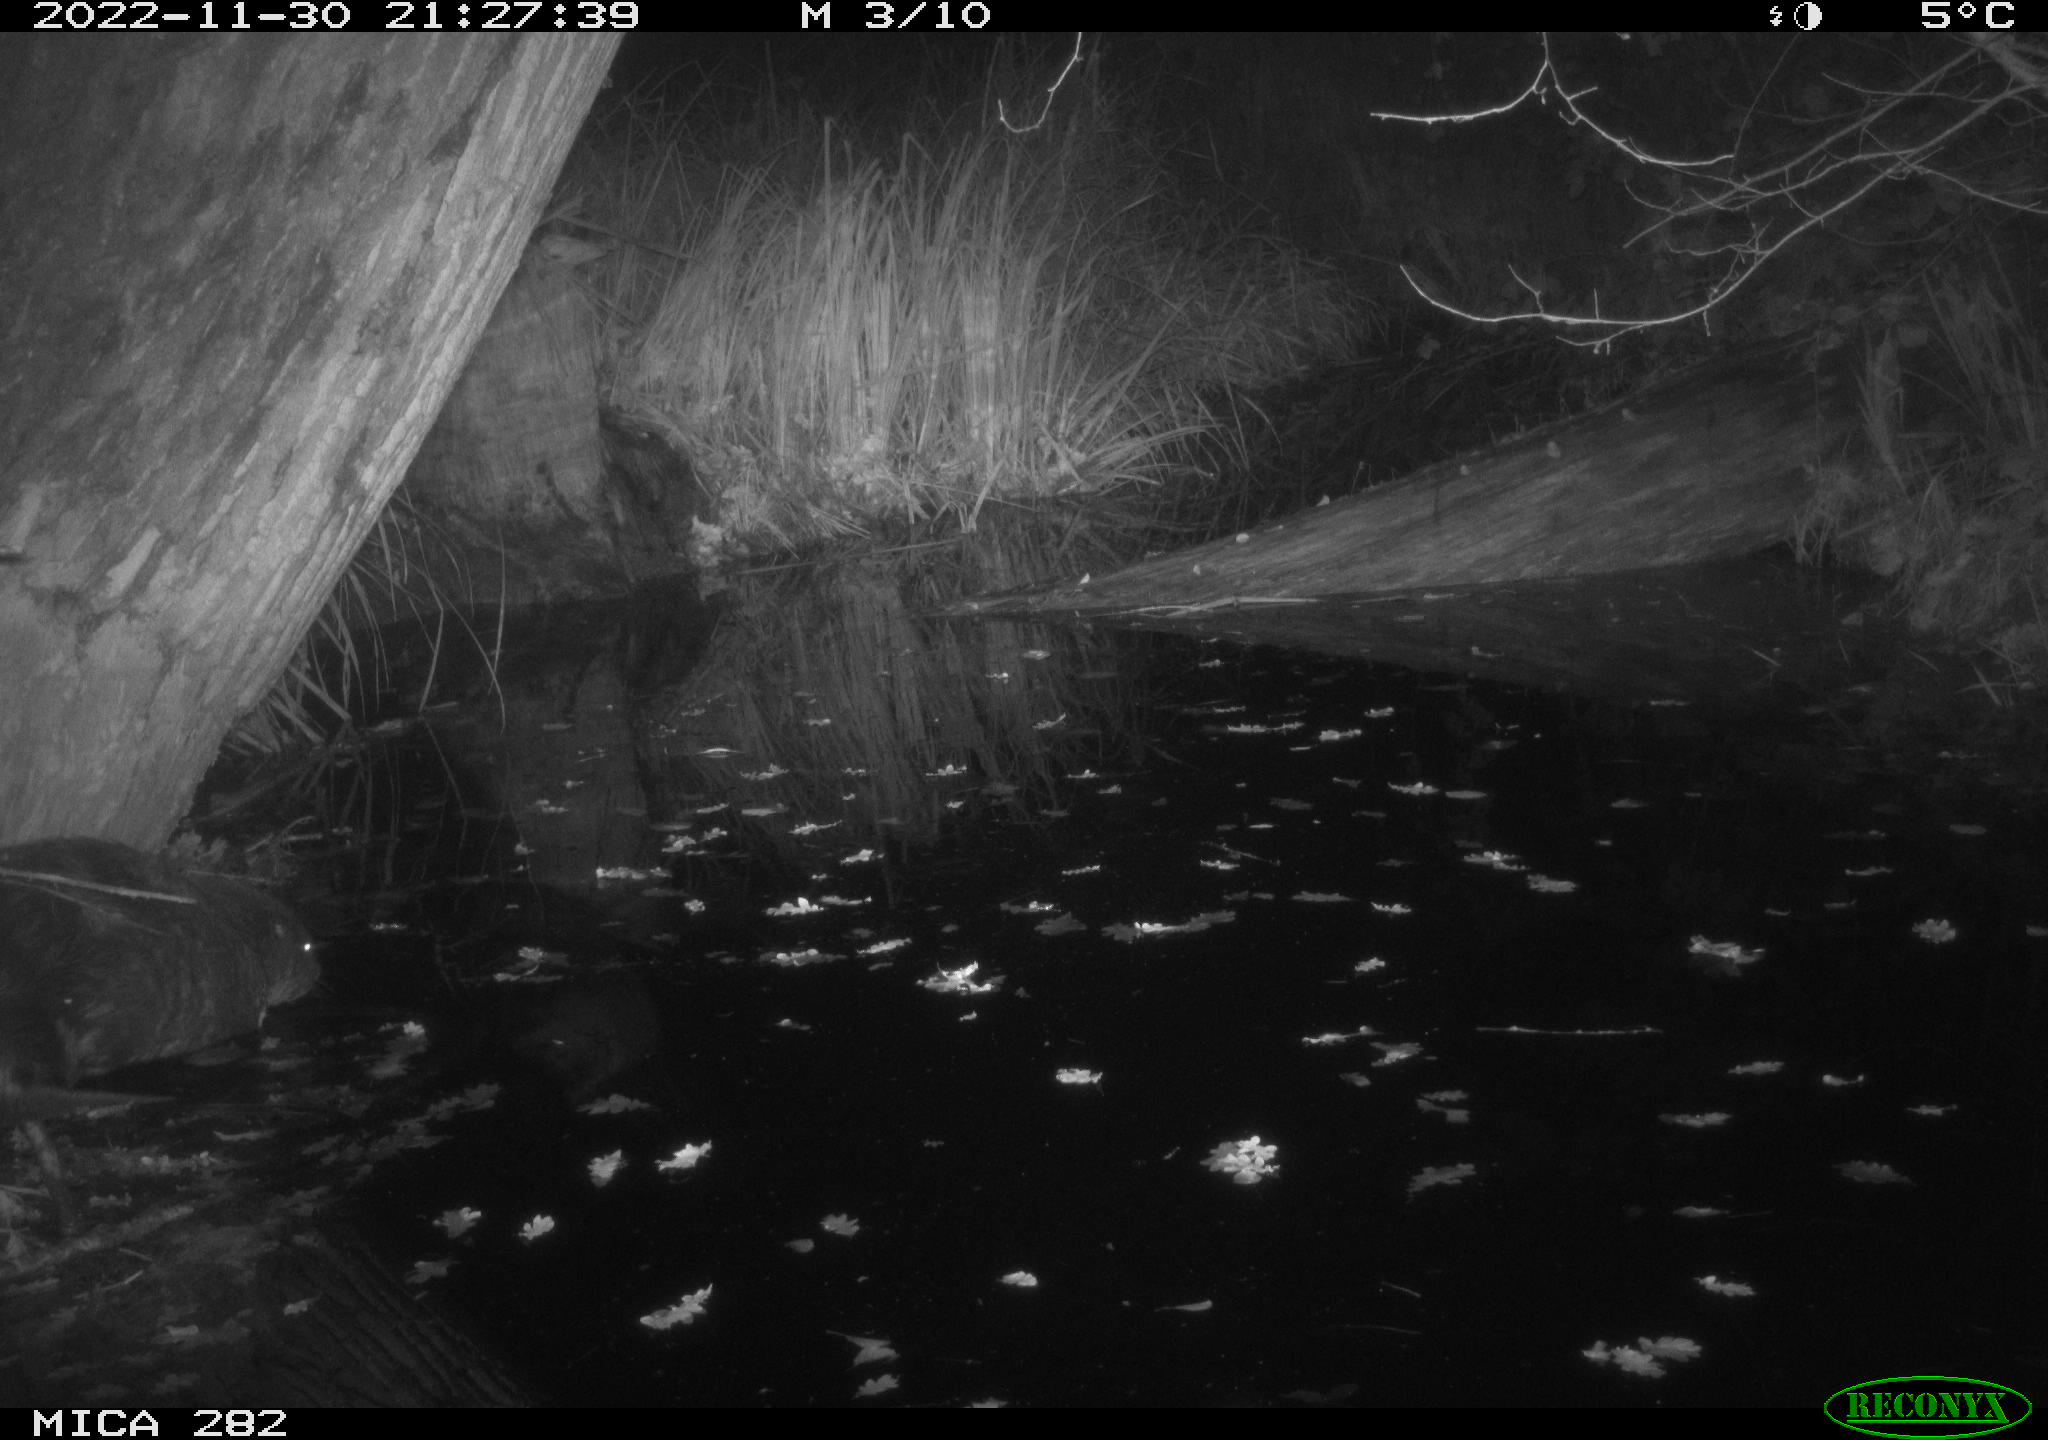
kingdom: Animalia
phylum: Chordata
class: Mammalia
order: Rodentia
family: Castoridae
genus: Castor
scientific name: Castor fiber
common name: Eurasian beaver
